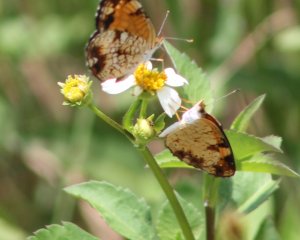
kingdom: Animalia
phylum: Arthropoda
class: Insecta
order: Lepidoptera
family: Nymphalidae
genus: Phyciodes
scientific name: Phyciodes tharos
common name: Pearl Crescent
